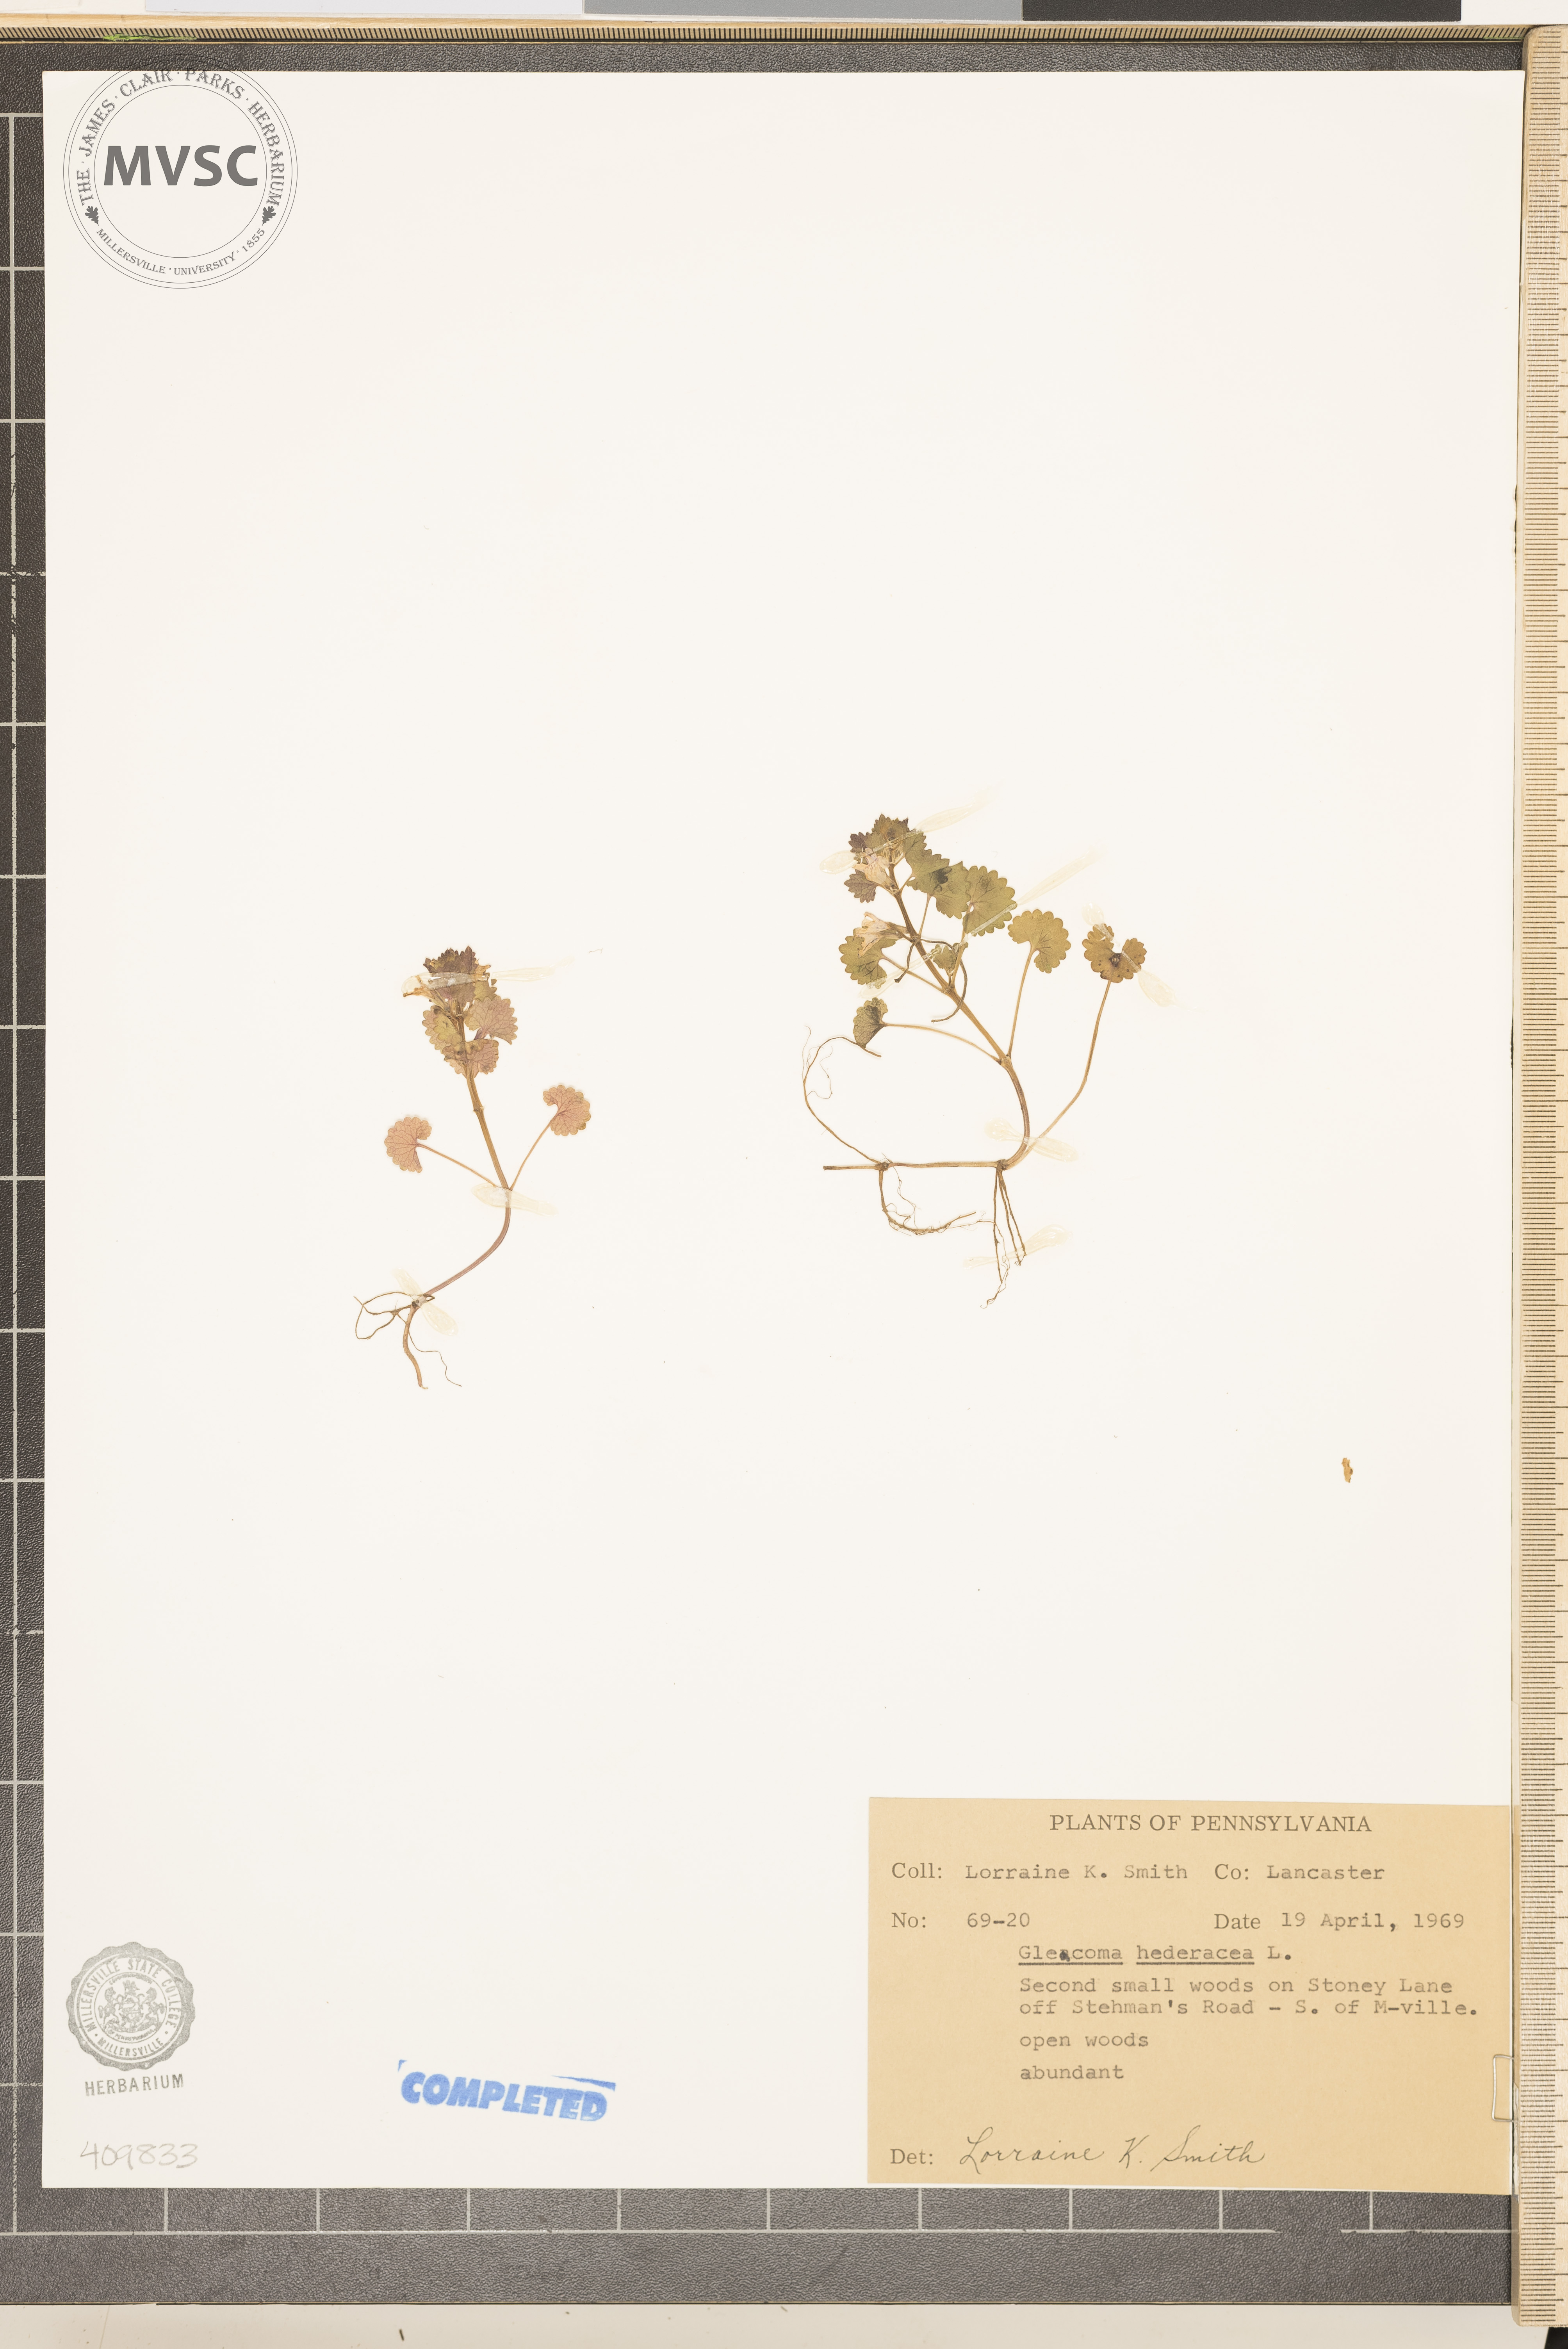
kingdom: Plantae
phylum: Tracheophyta
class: Magnoliopsida
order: Lamiales
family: Lamiaceae
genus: Glechoma
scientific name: Glechoma hederacea
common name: ground ivy
